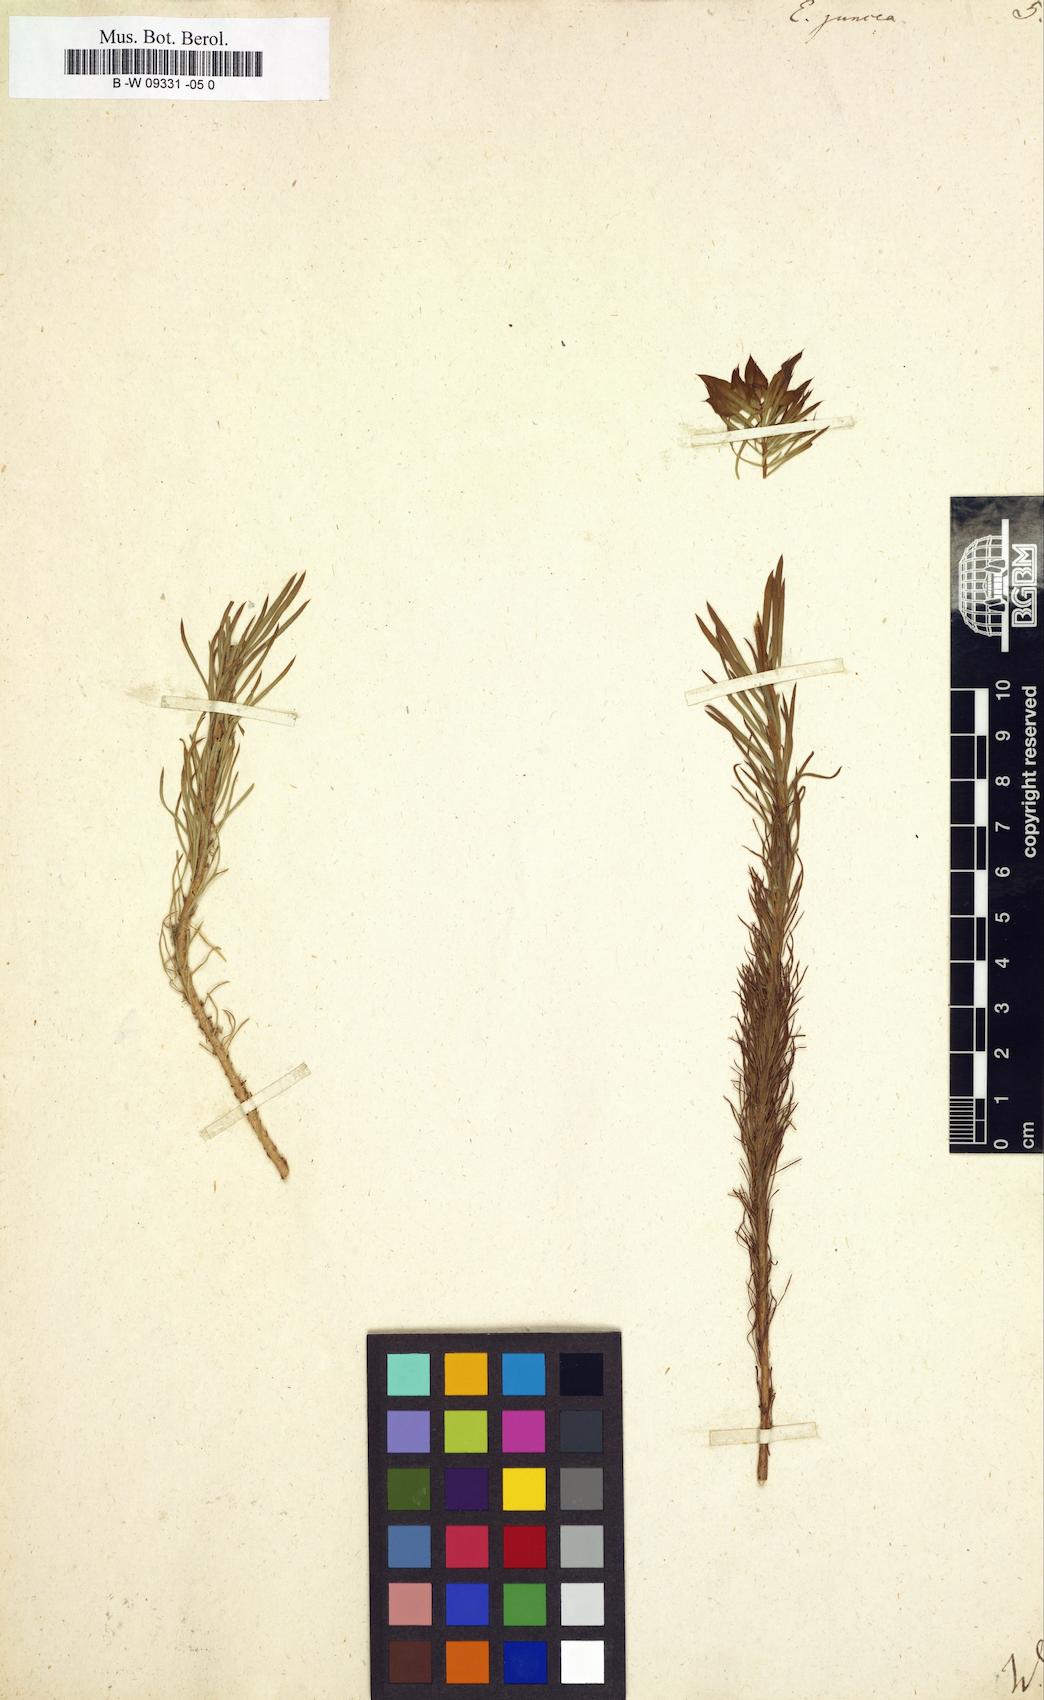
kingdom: Plantae
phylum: Tracheophyta
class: Magnoliopsida
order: Malpighiales
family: Euphorbiaceae
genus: Euphorbia
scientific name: Euphorbia aleppica
